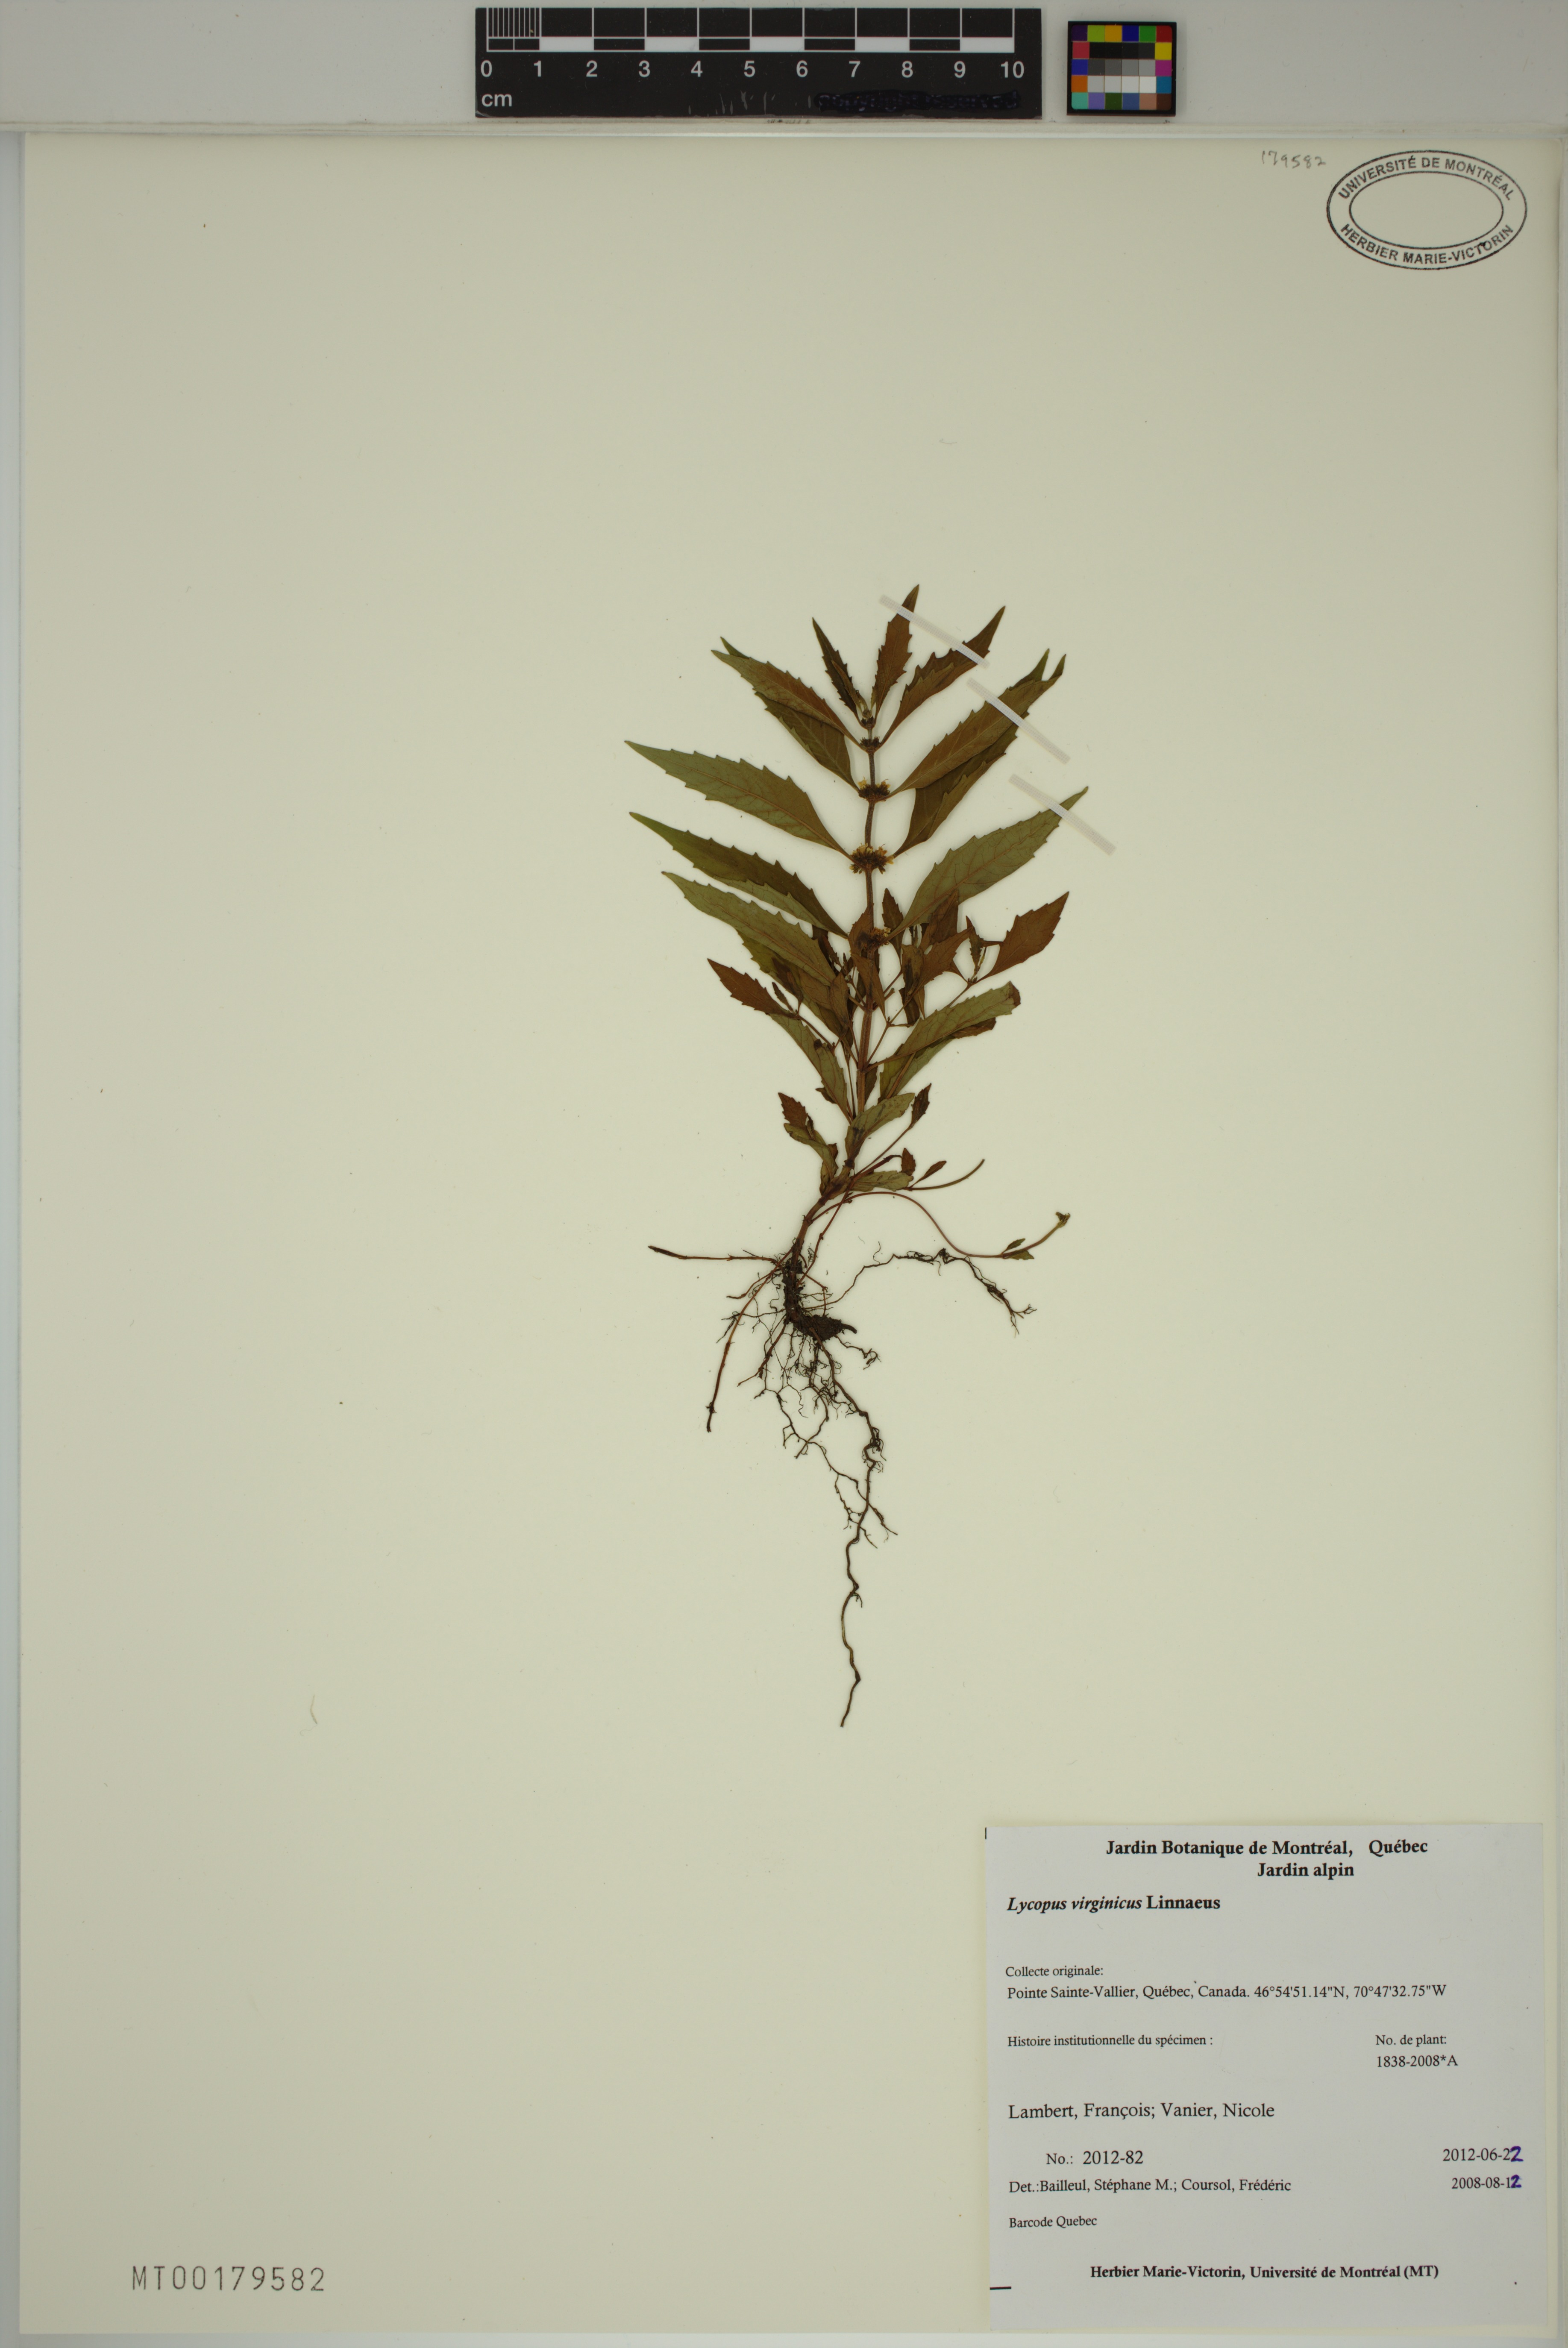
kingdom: Plantae
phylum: Tracheophyta
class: Magnoliopsida
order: Lamiales
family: Lamiaceae
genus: Lycopus
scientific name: Lycopus virginicus
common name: Bugleweed
